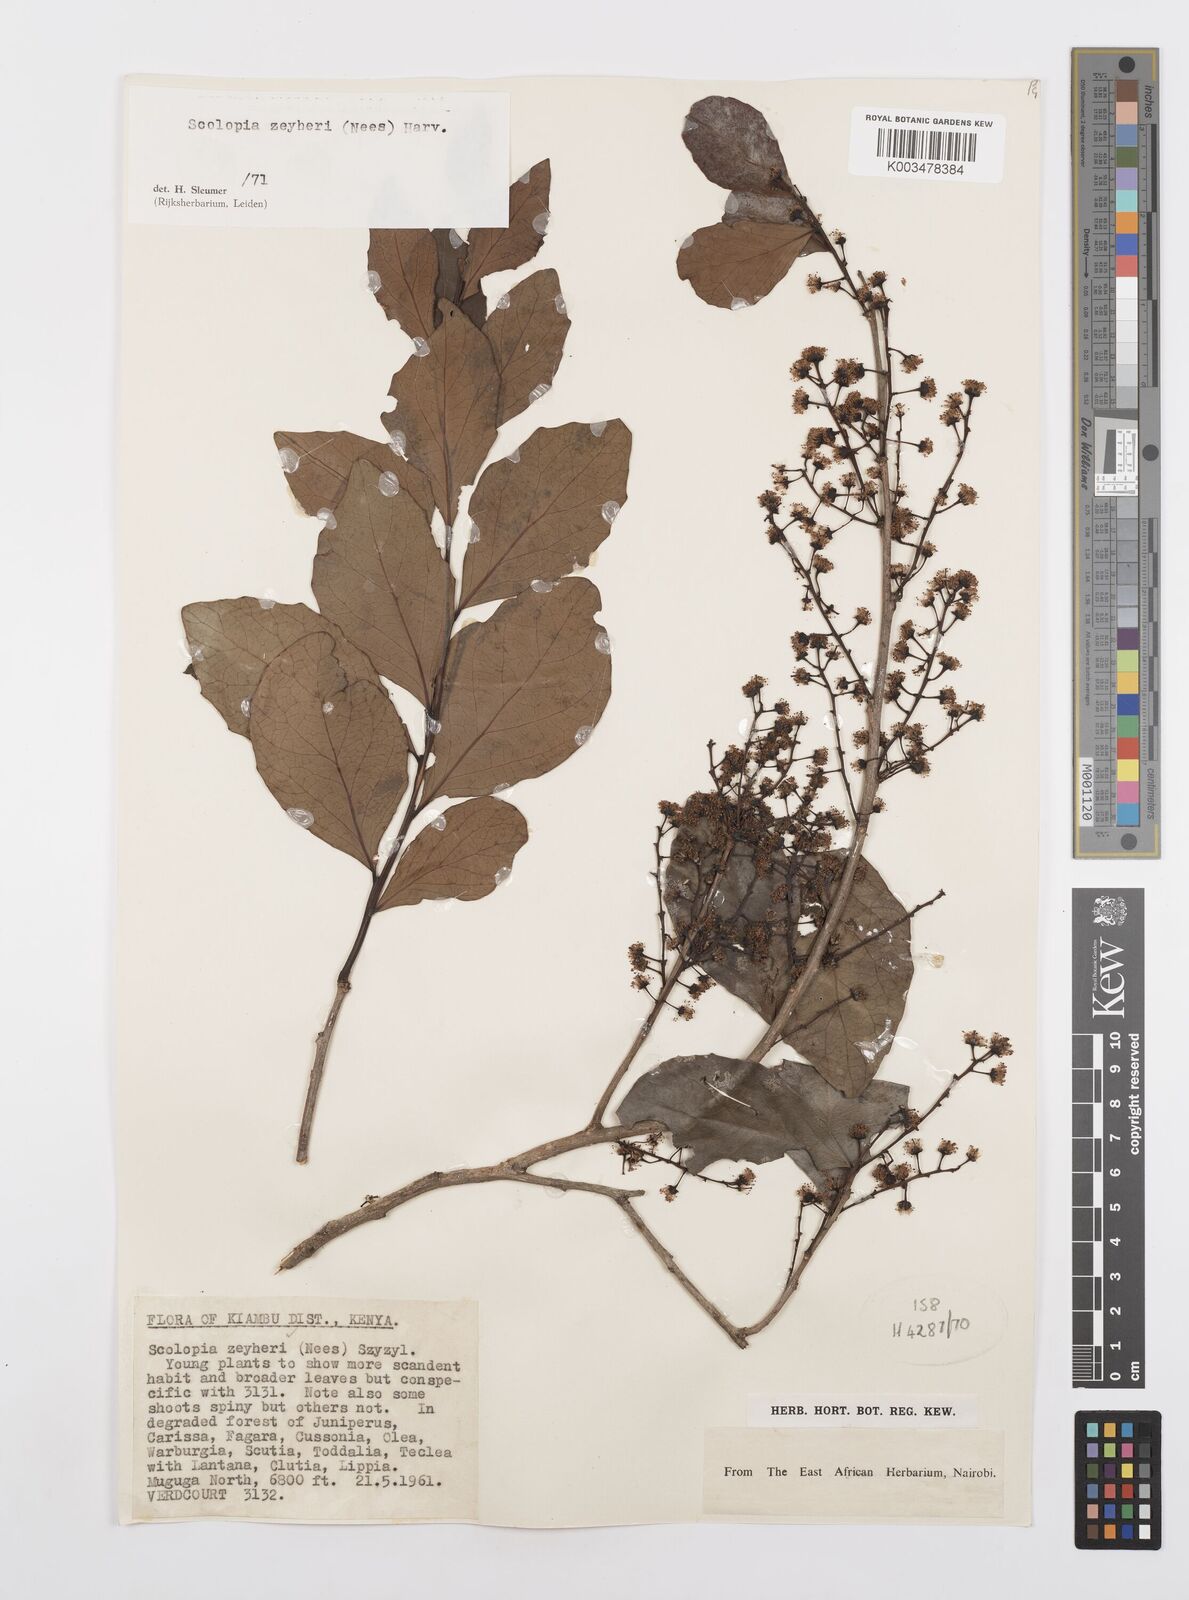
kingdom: Plantae
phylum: Tracheophyta
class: Magnoliopsida
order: Malpighiales
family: Salicaceae
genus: Scolopia
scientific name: Scolopia zeyheri
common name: Thorn pear
